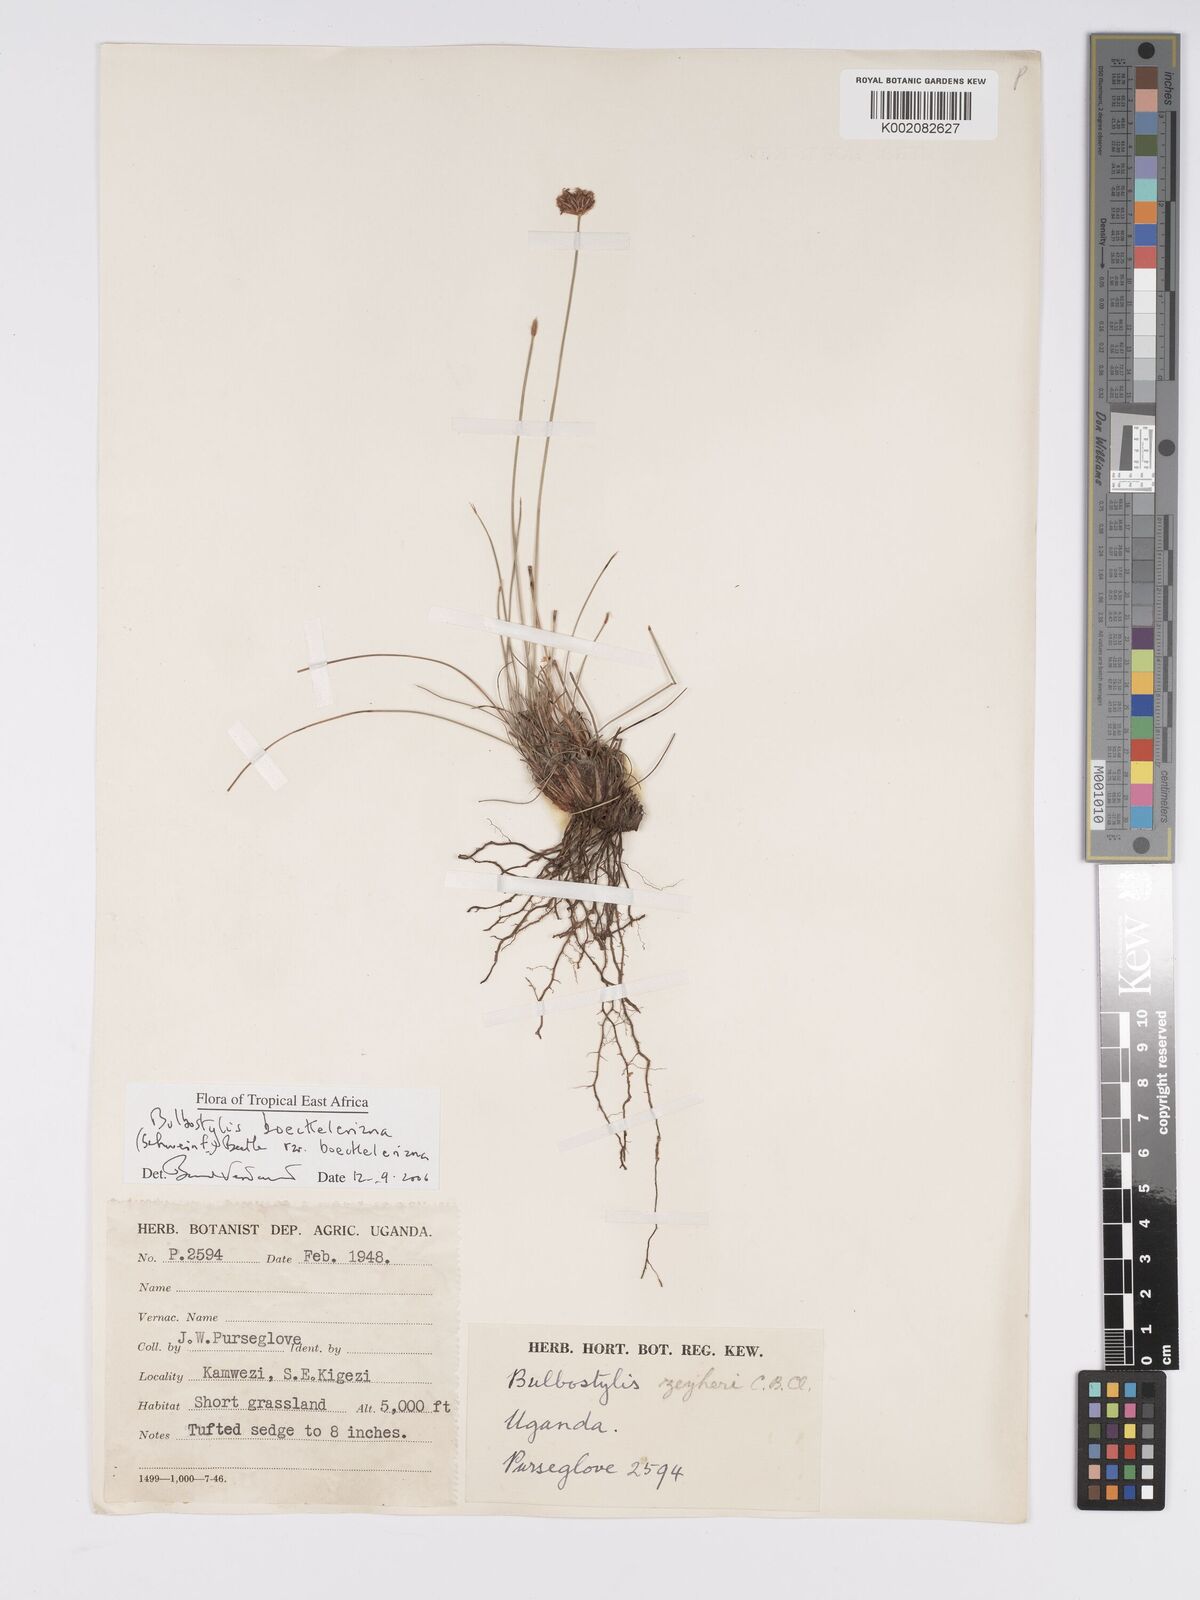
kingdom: Plantae
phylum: Tracheophyta
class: Liliopsida
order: Poales
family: Cyperaceae
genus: Bulbostylis
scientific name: Bulbostylis boeckeleriana
